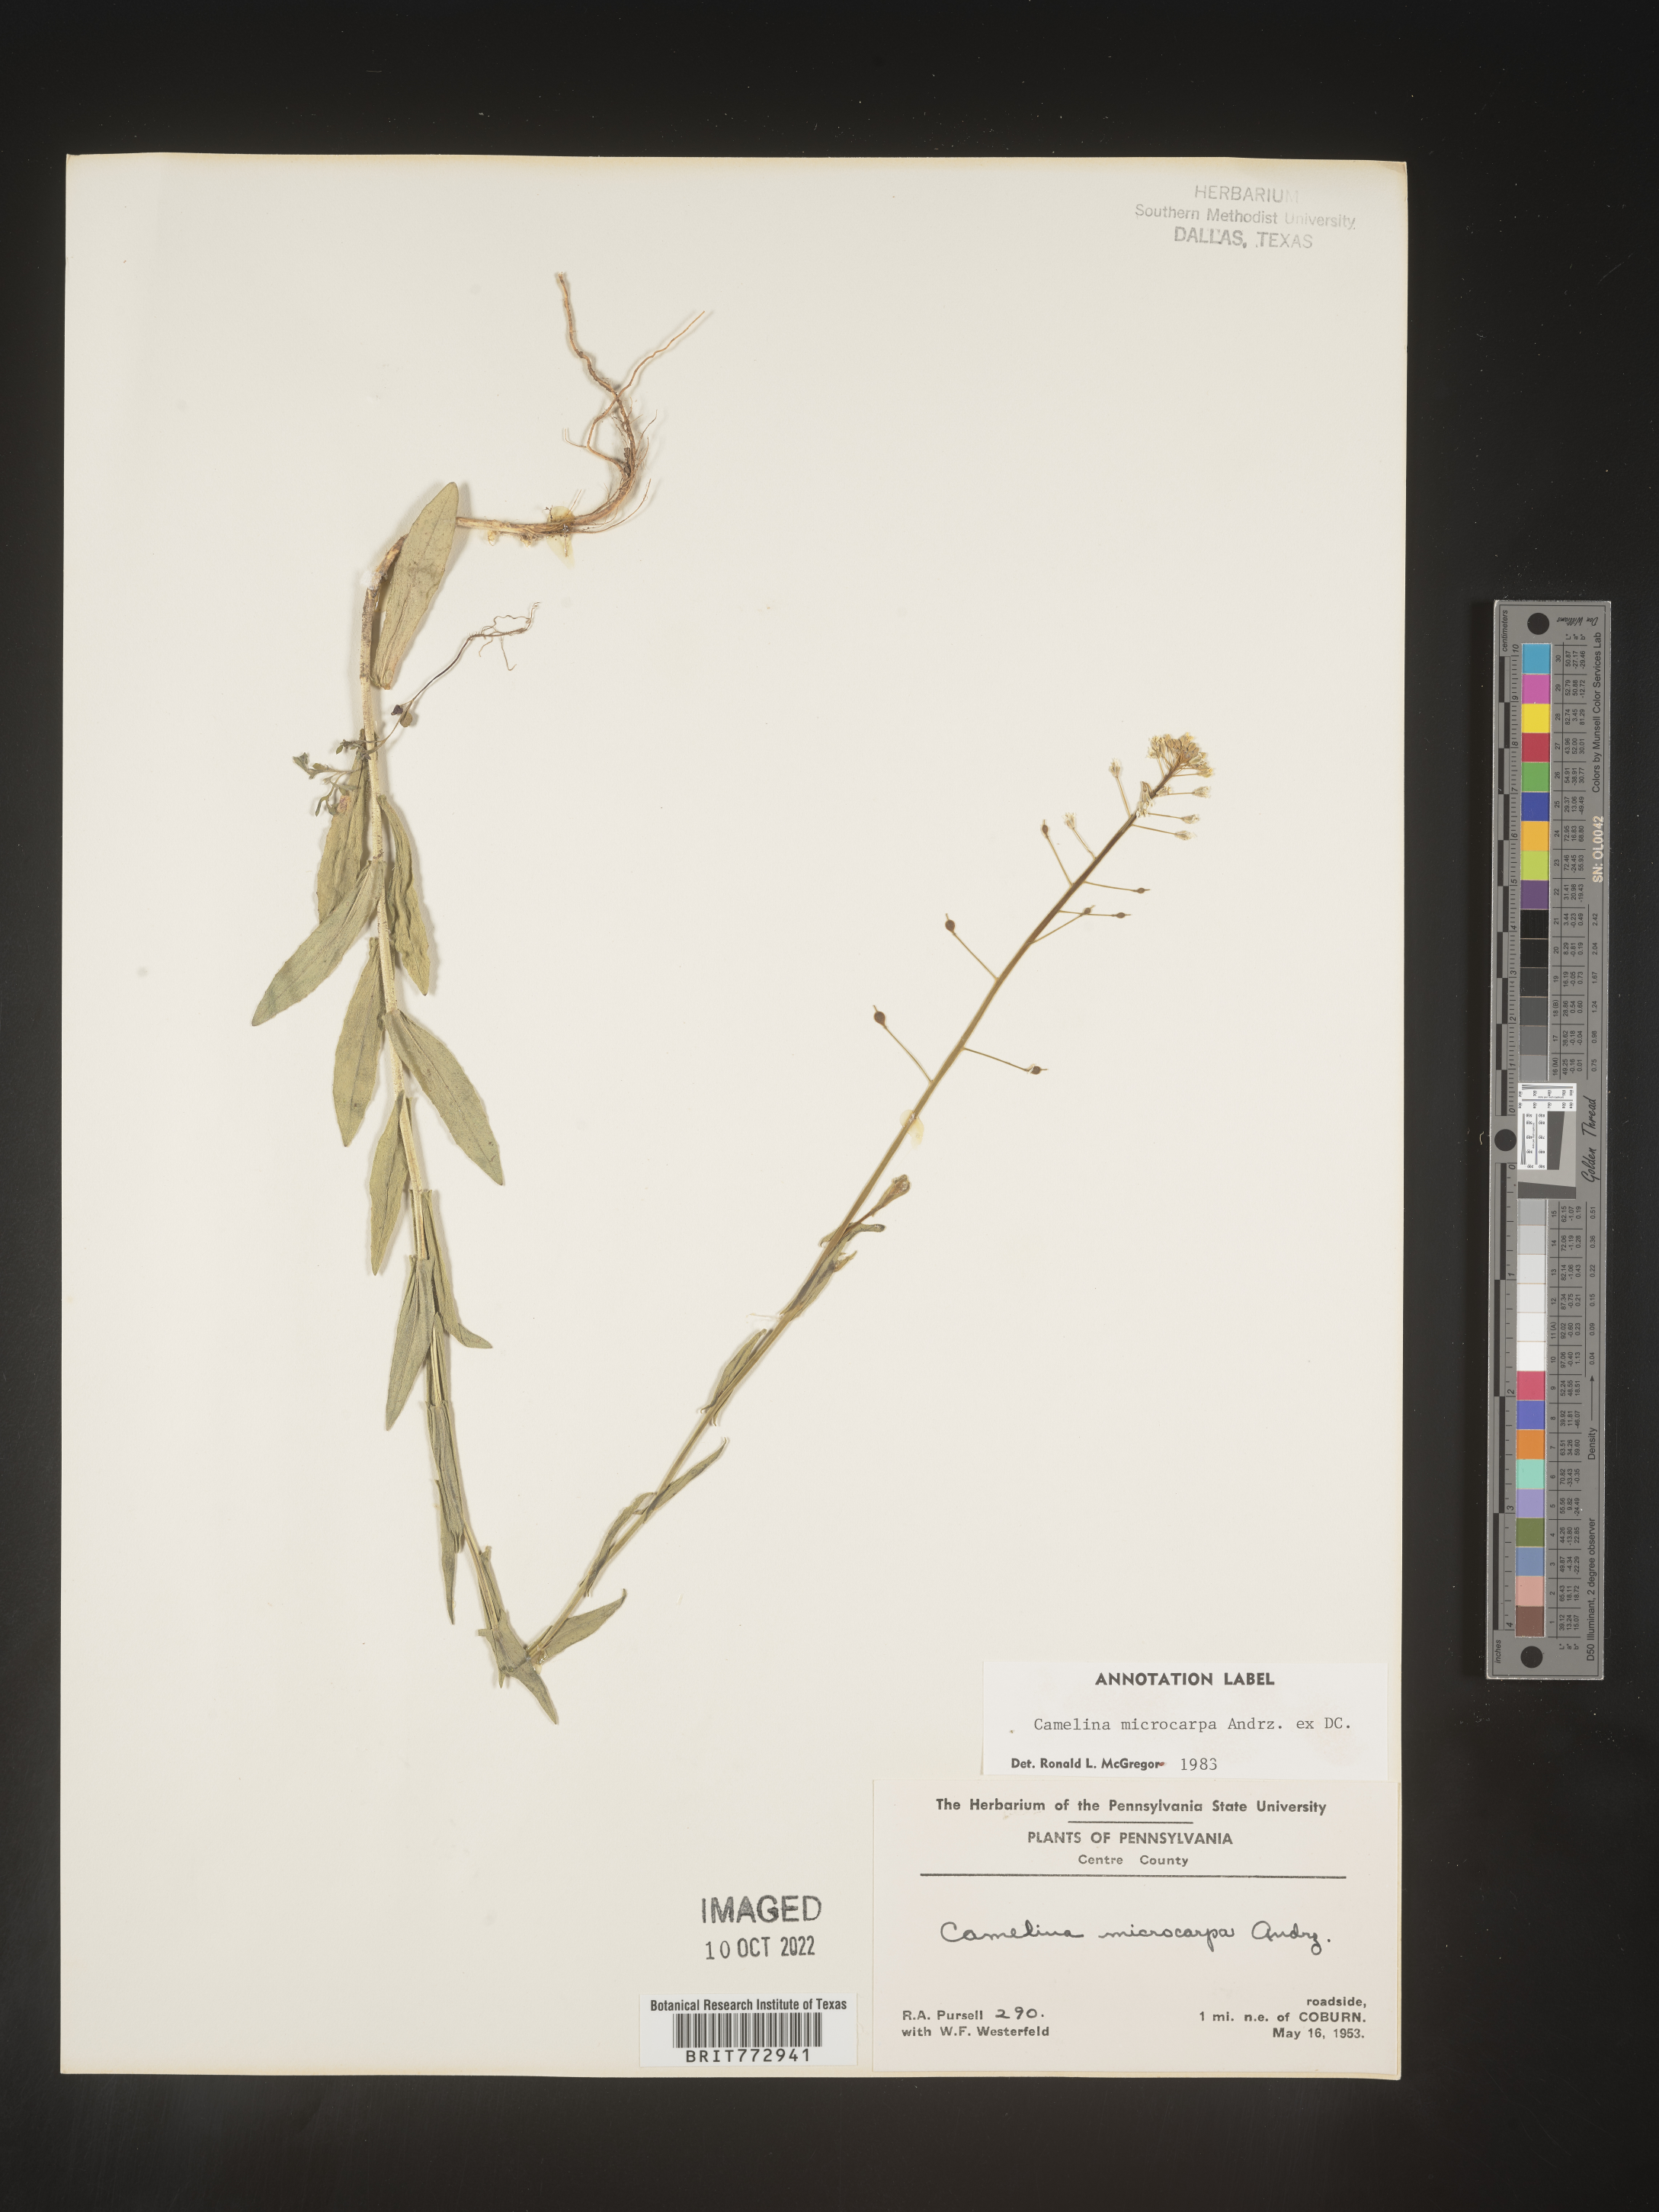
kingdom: Plantae
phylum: Tracheophyta
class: Magnoliopsida
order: Brassicales
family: Brassicaceae
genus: Camelina
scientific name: Camelina microcarpa
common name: Lesser gold-of-pleasure
